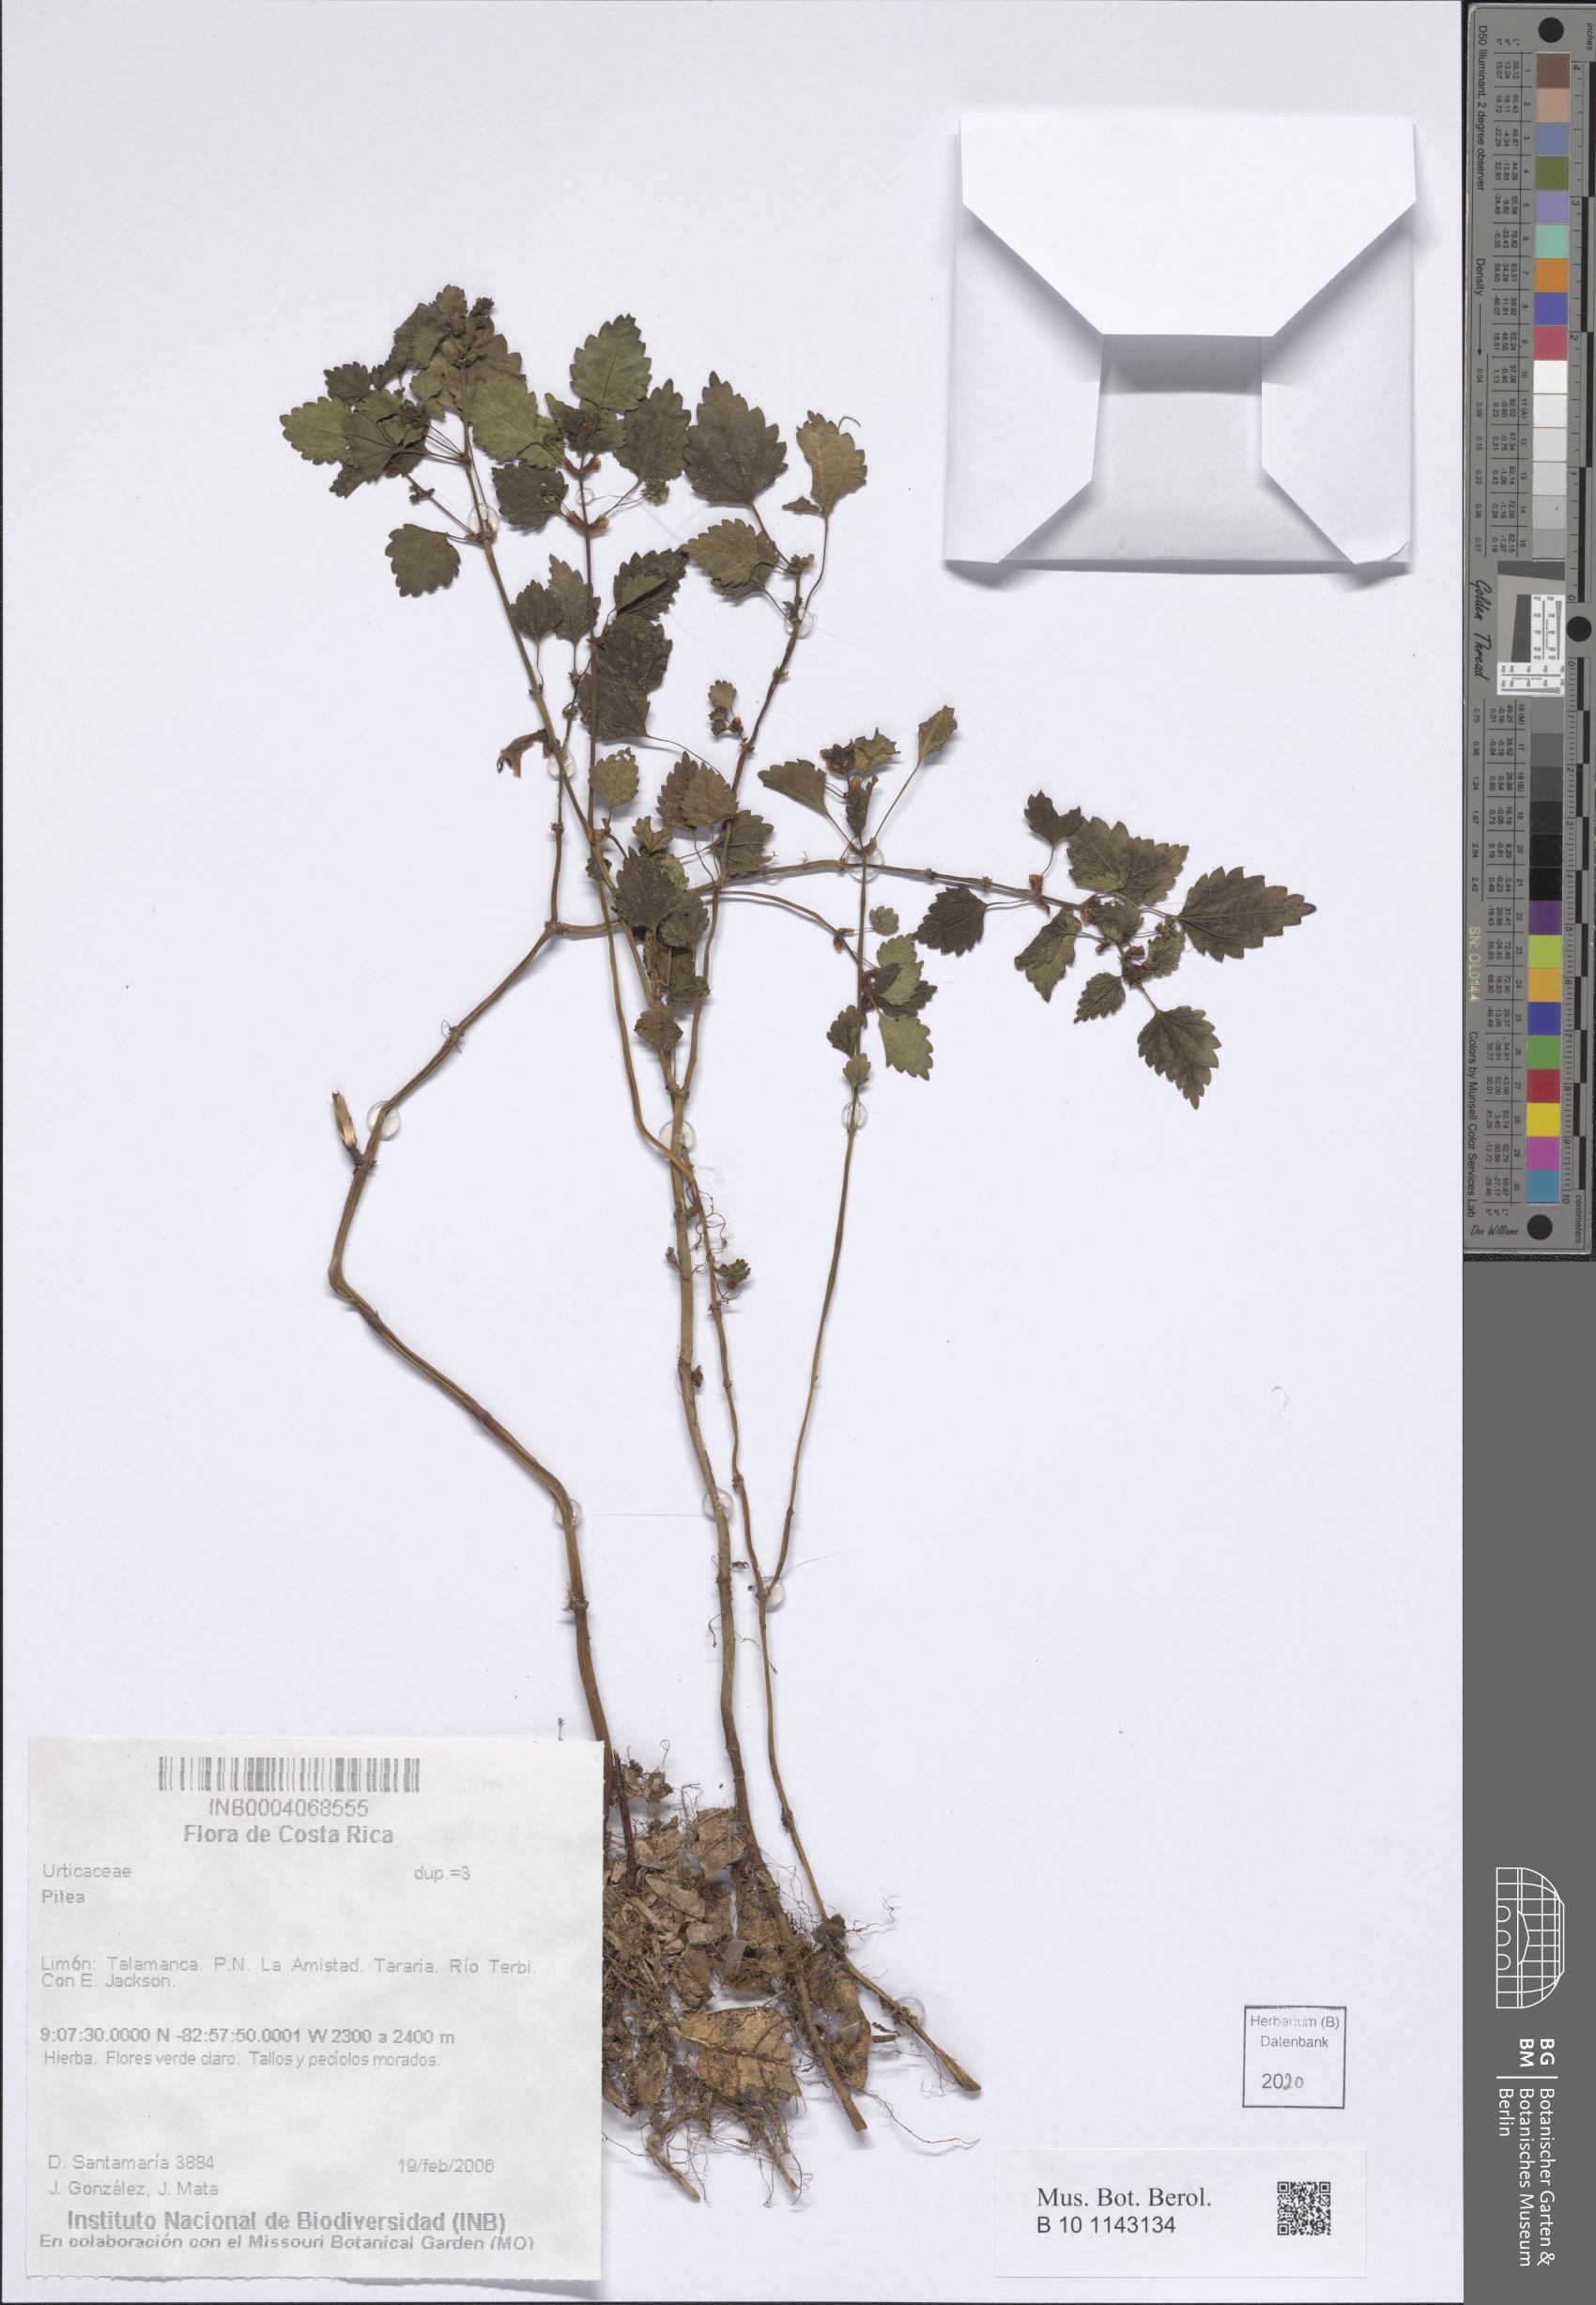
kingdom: Plantae
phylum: Tracheophyta
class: Magnoliopsida
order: Rosales
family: Urticaceae
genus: Pilea
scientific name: Pilea
